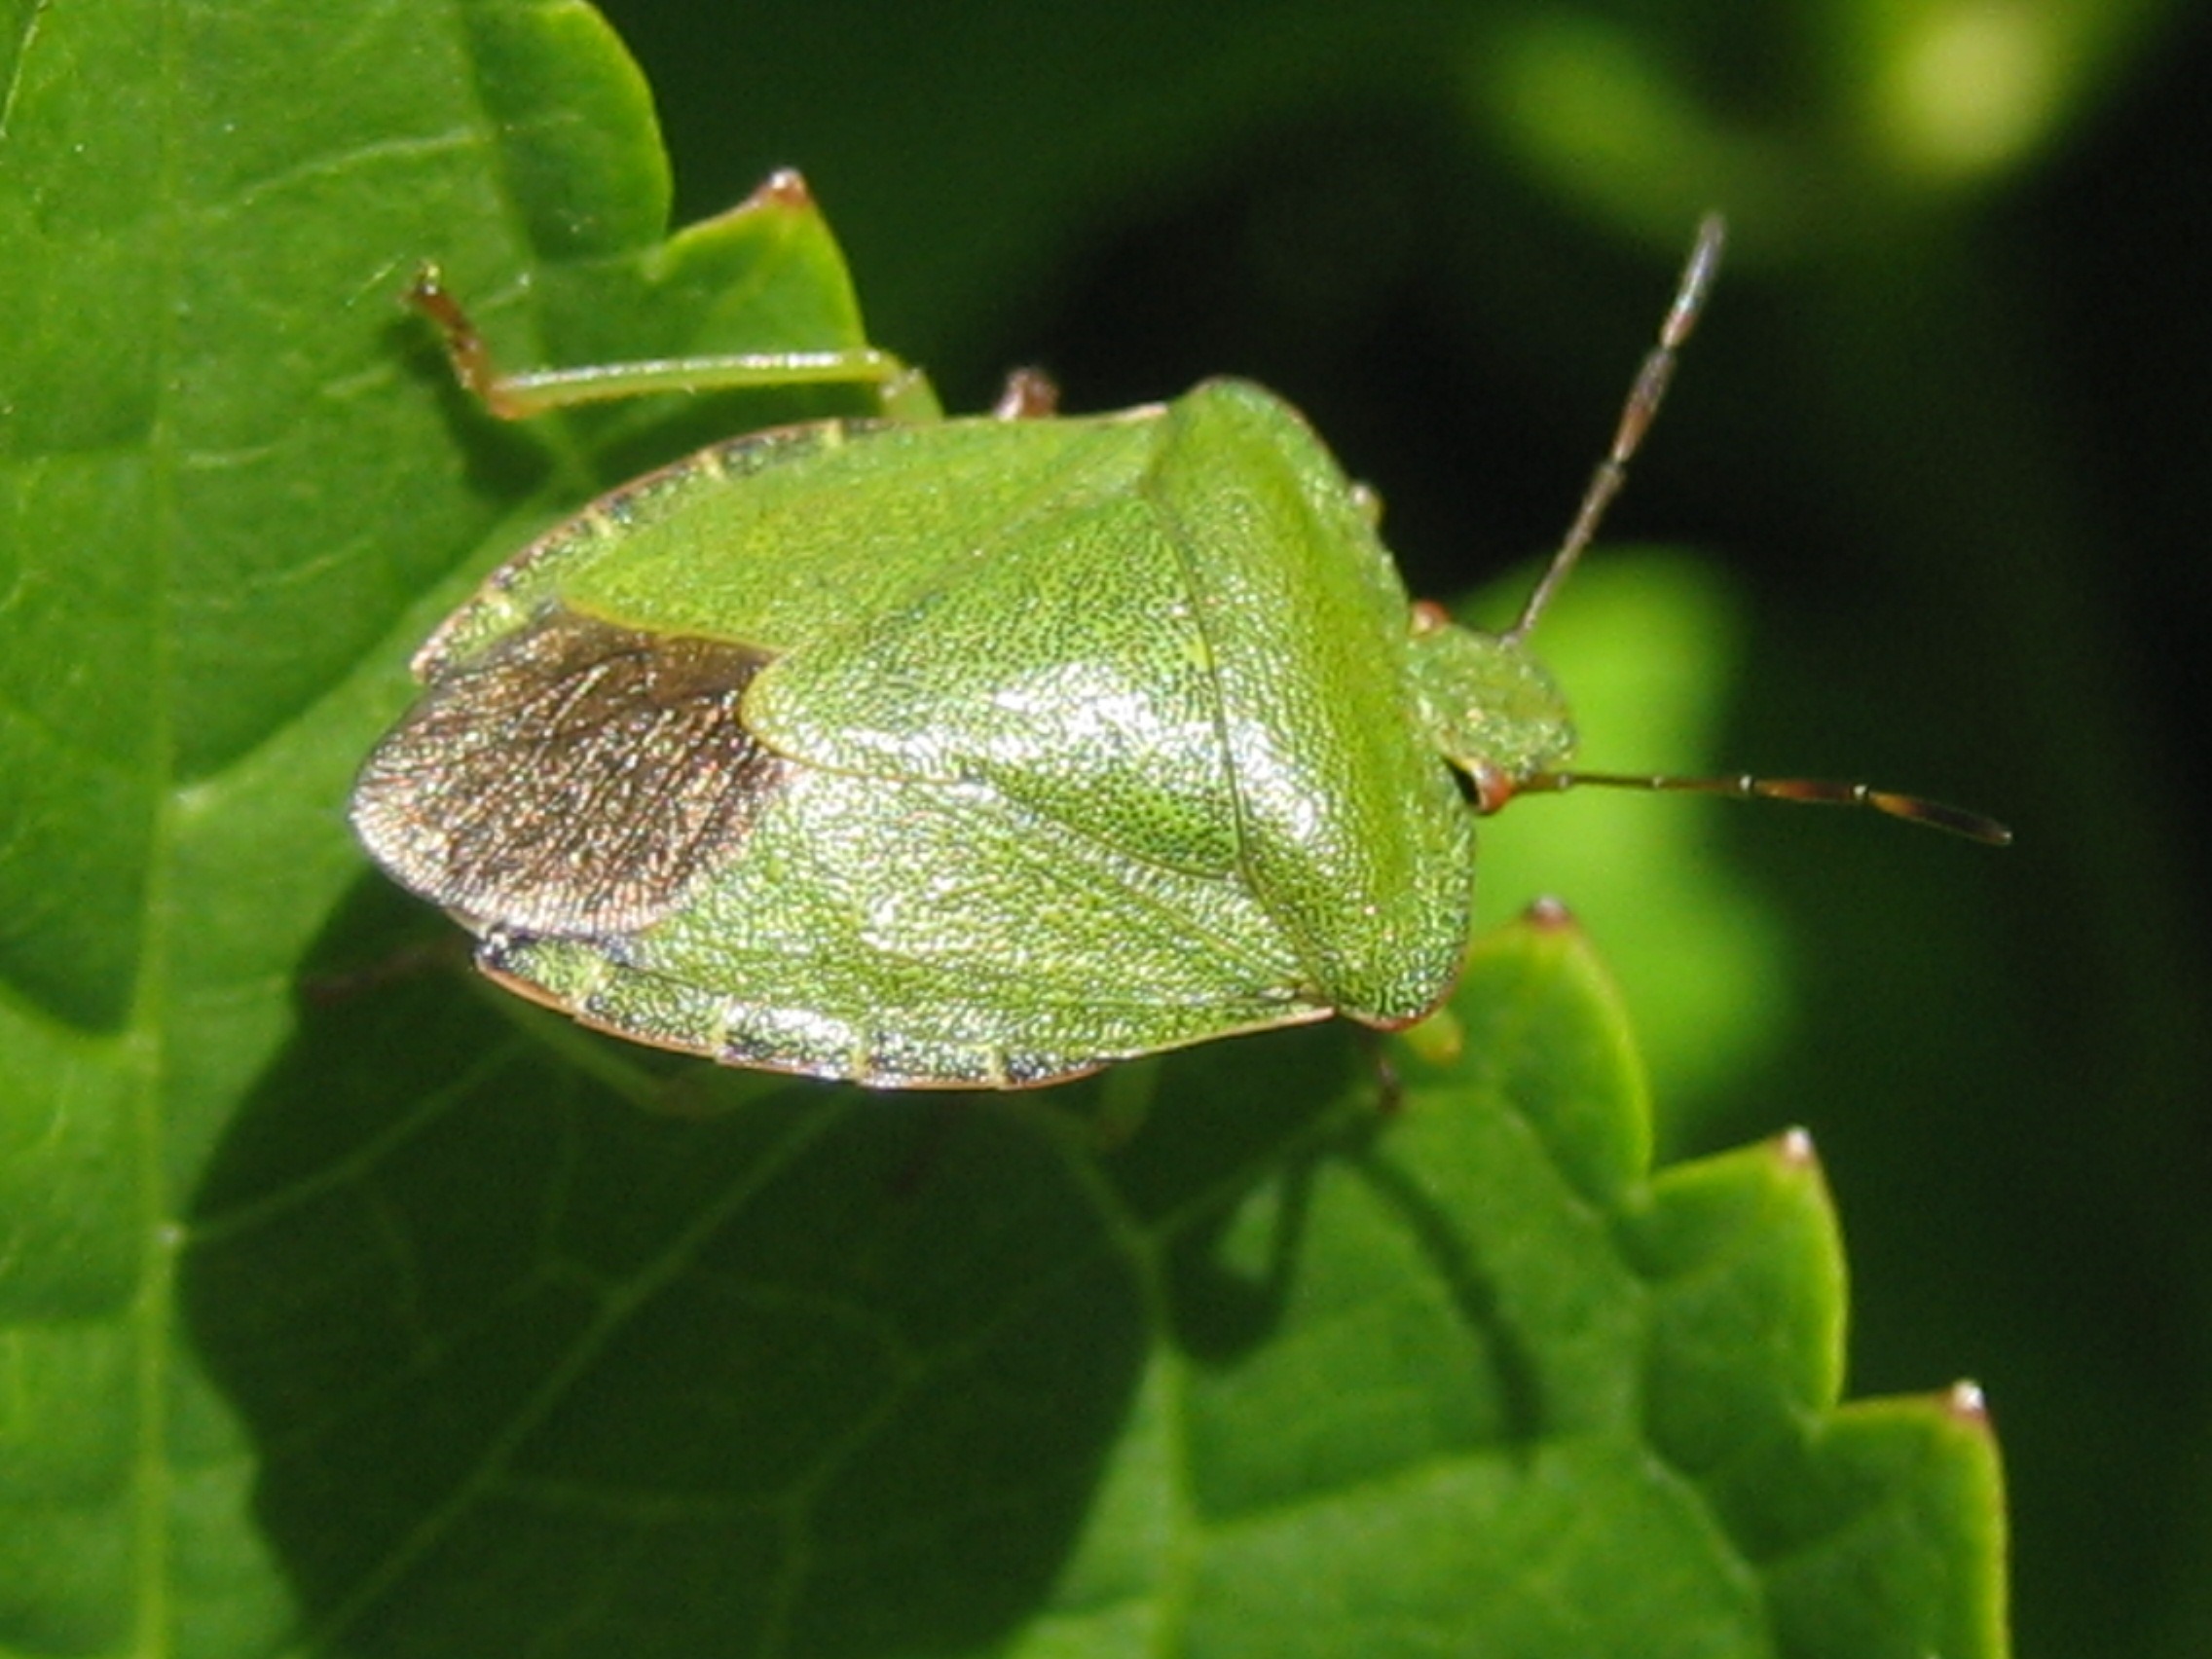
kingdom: Animalia
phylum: Arthropoda
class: Insecta
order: Hemiptera
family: Pentatomidae
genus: Palomena
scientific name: Palomena prasina
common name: Grøn bredtæge
